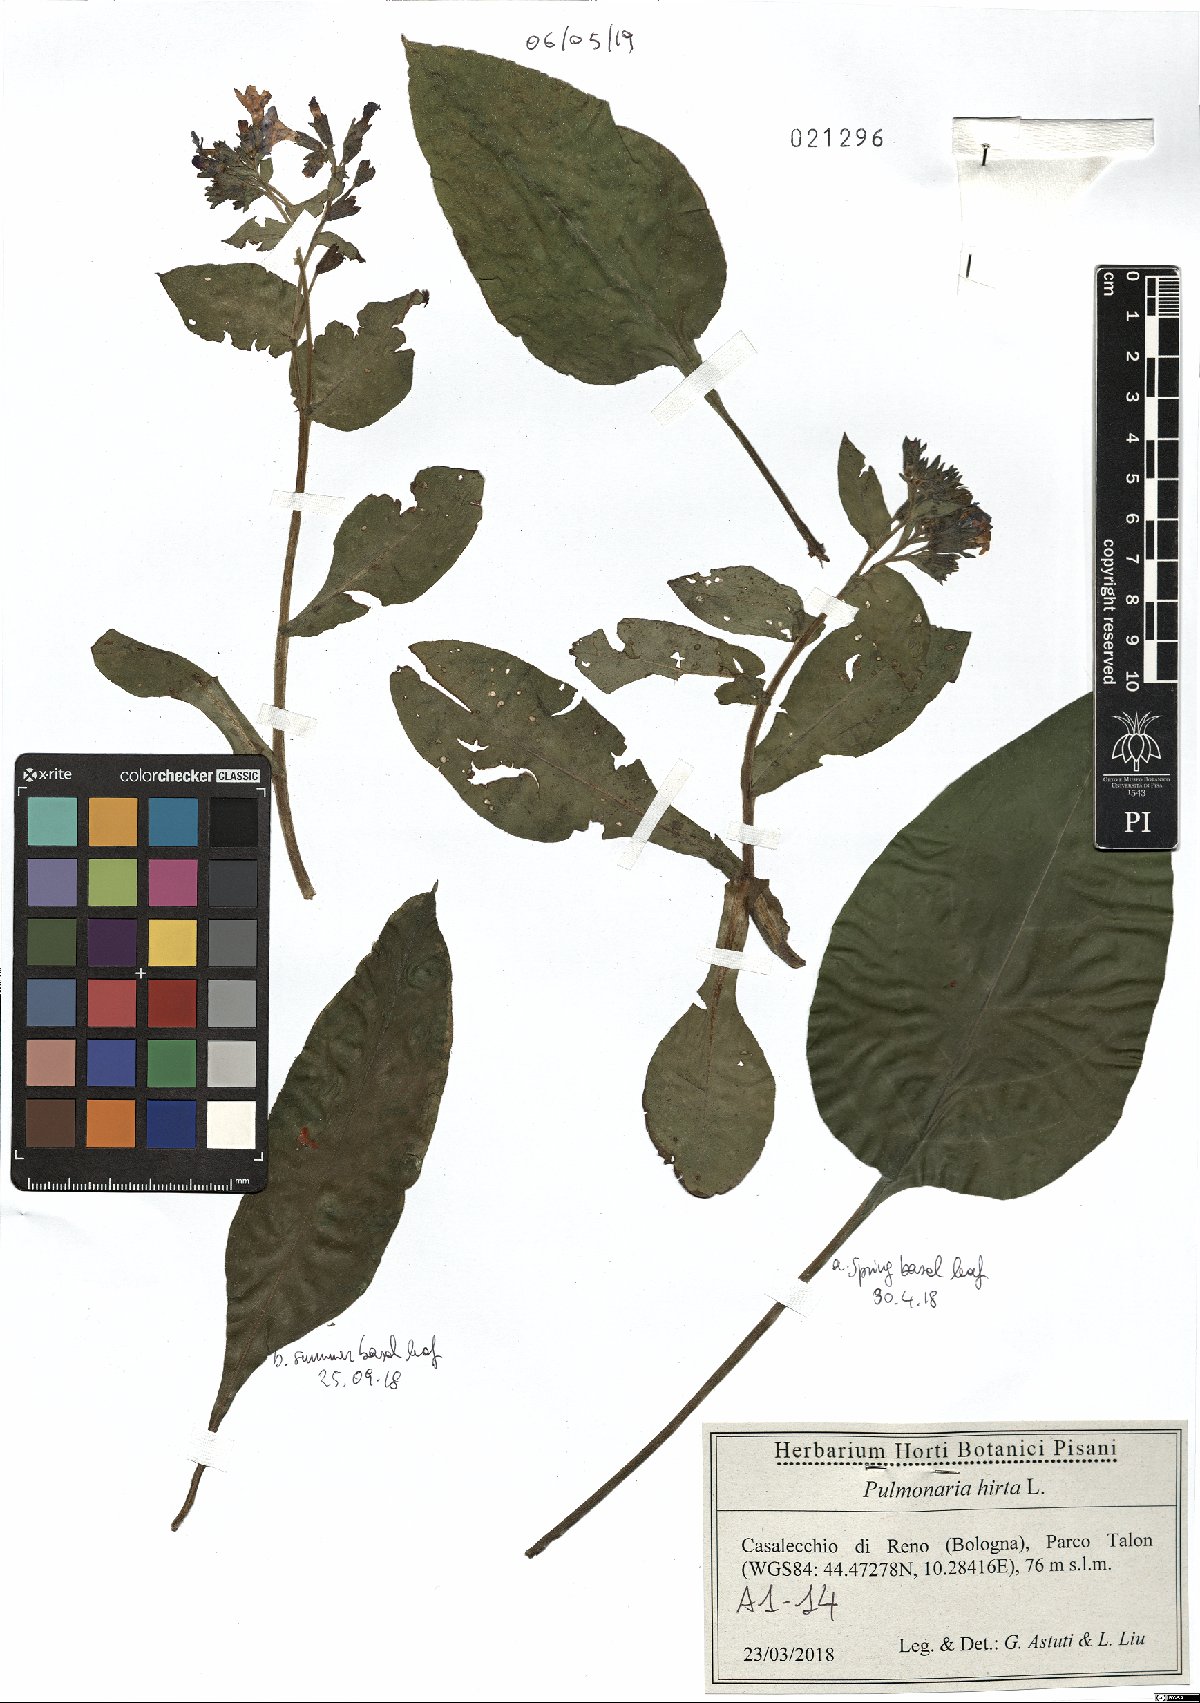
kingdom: Plantae
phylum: Tracheophyta
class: Magnoliopsida
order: Boraginales
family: Boraginaceae
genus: Pulmonaria
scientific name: Pulmonaria hirta
